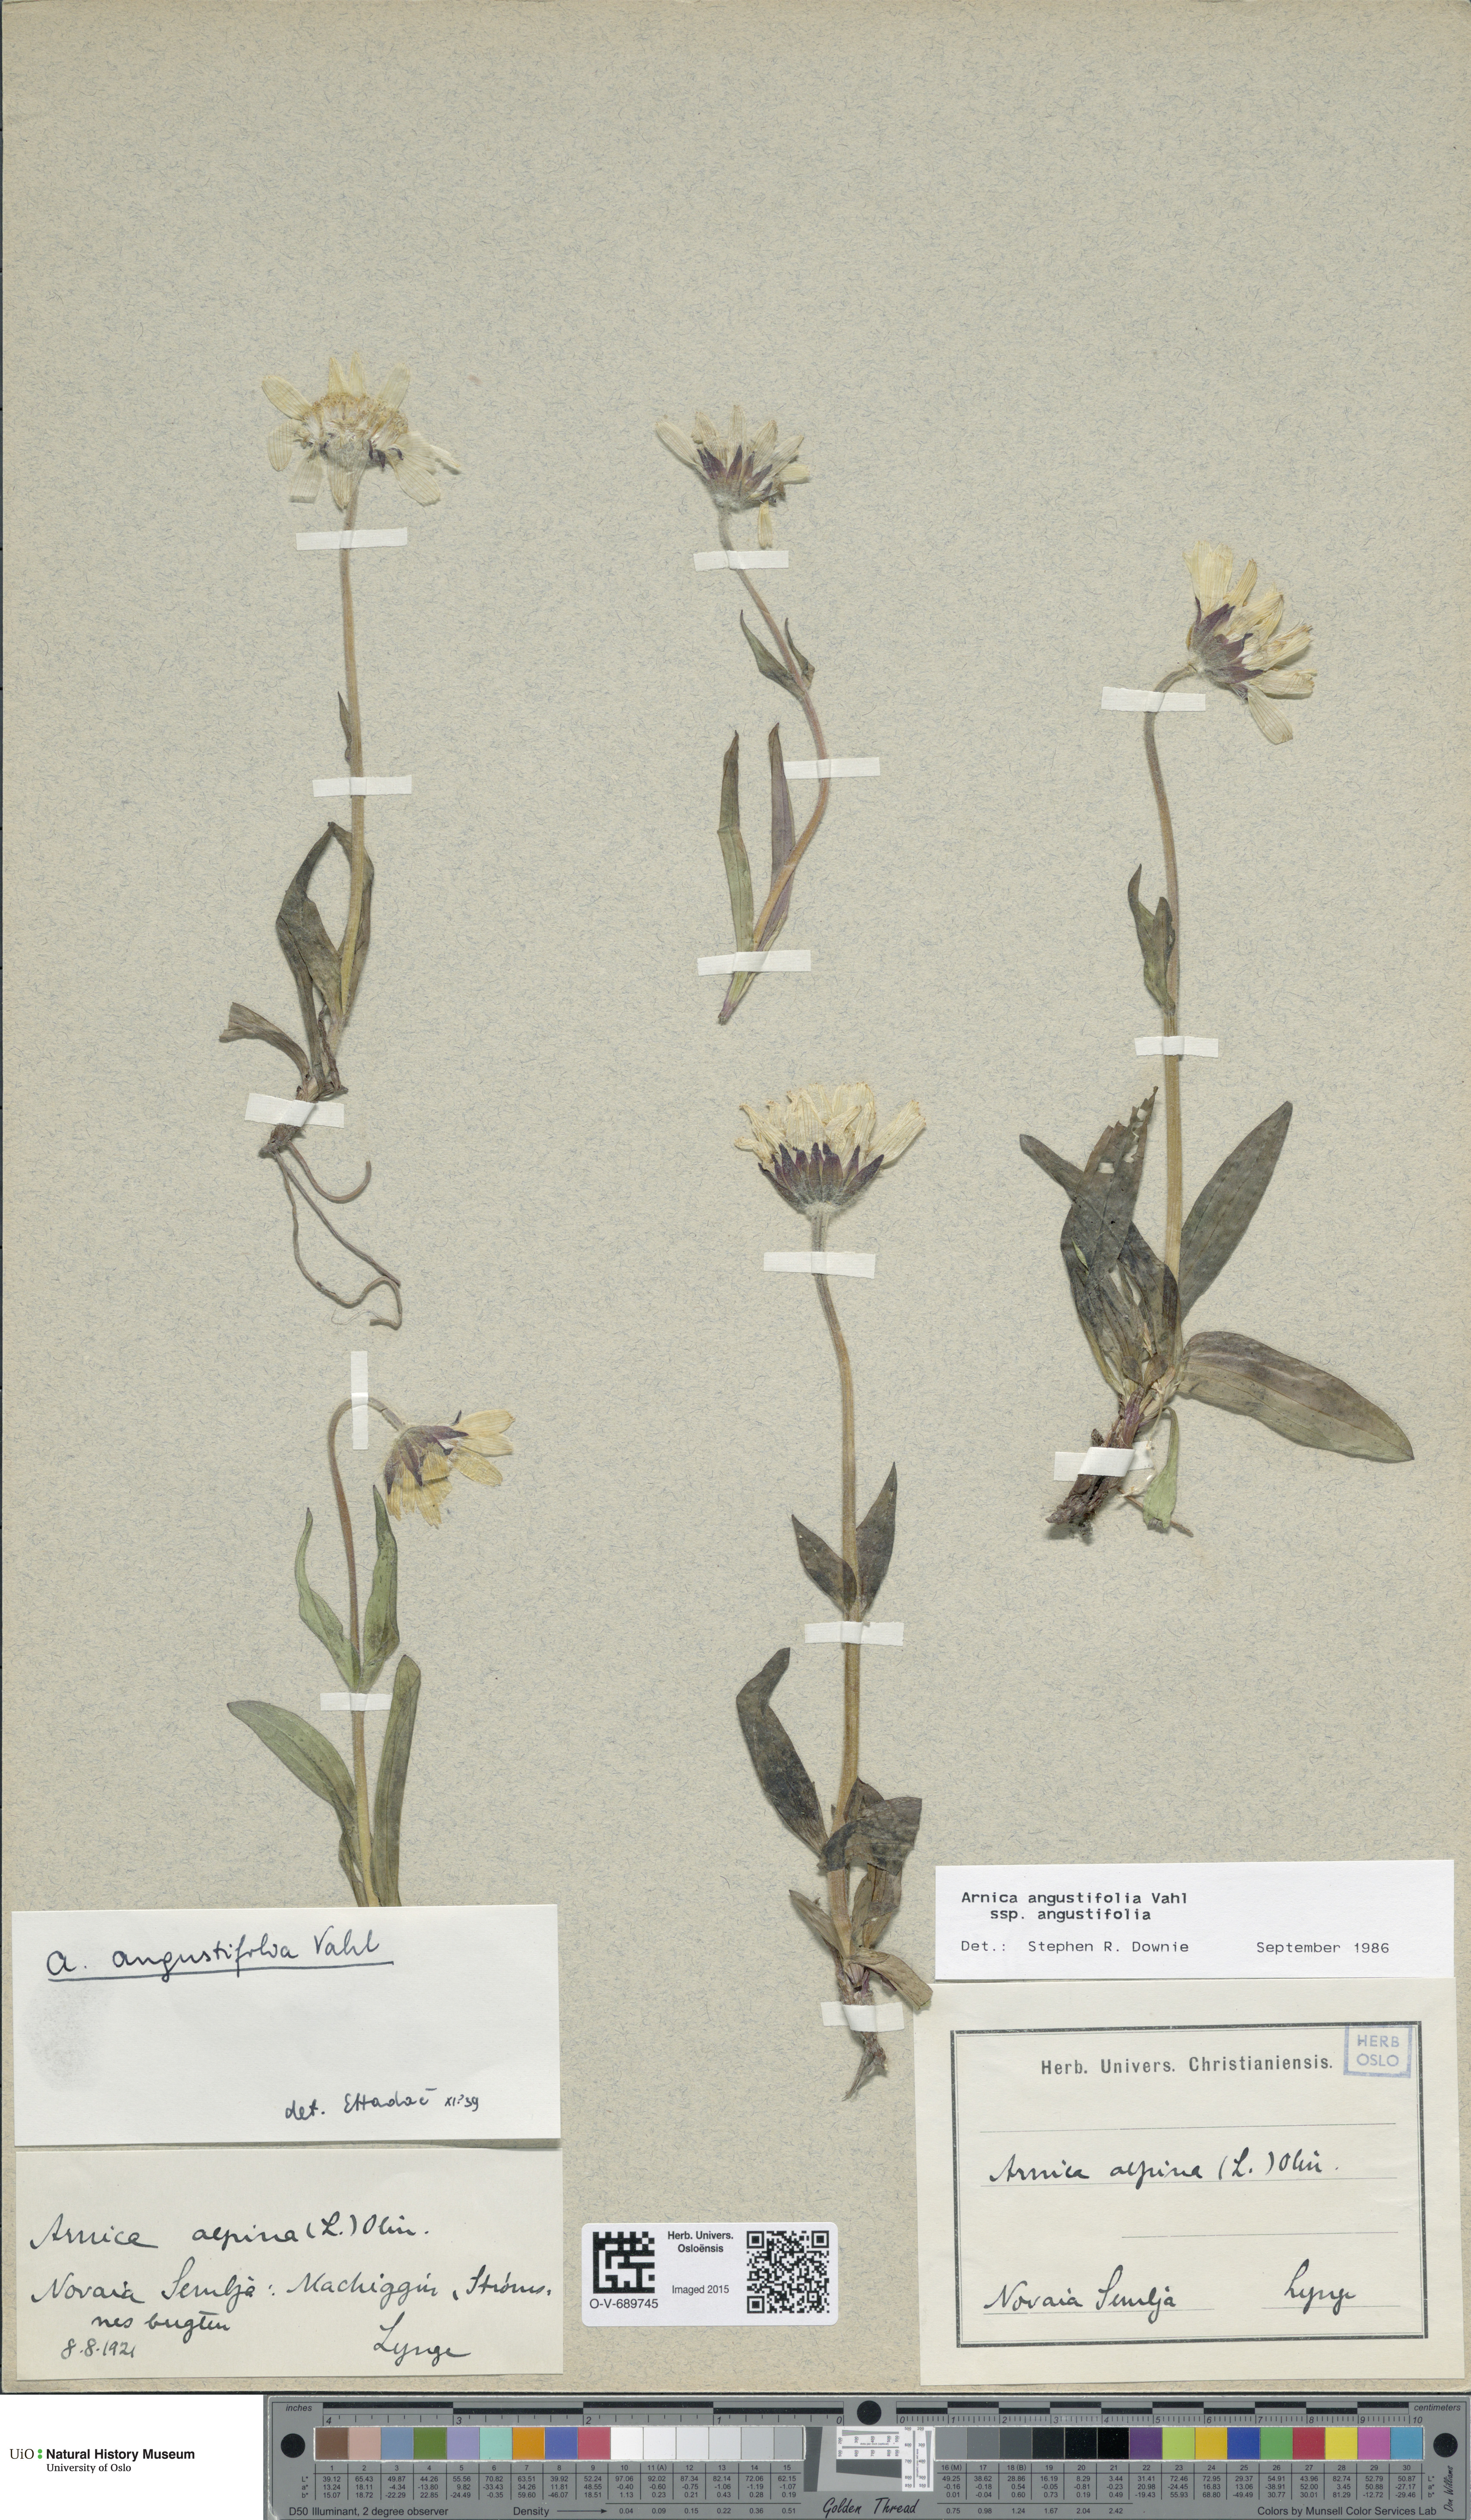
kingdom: Plantae
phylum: Tracheophyta
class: Magnoliopsida
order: Asterales
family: Asteraceae
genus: Arnica
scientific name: Arnica angustifolia
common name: Arctic arnica
